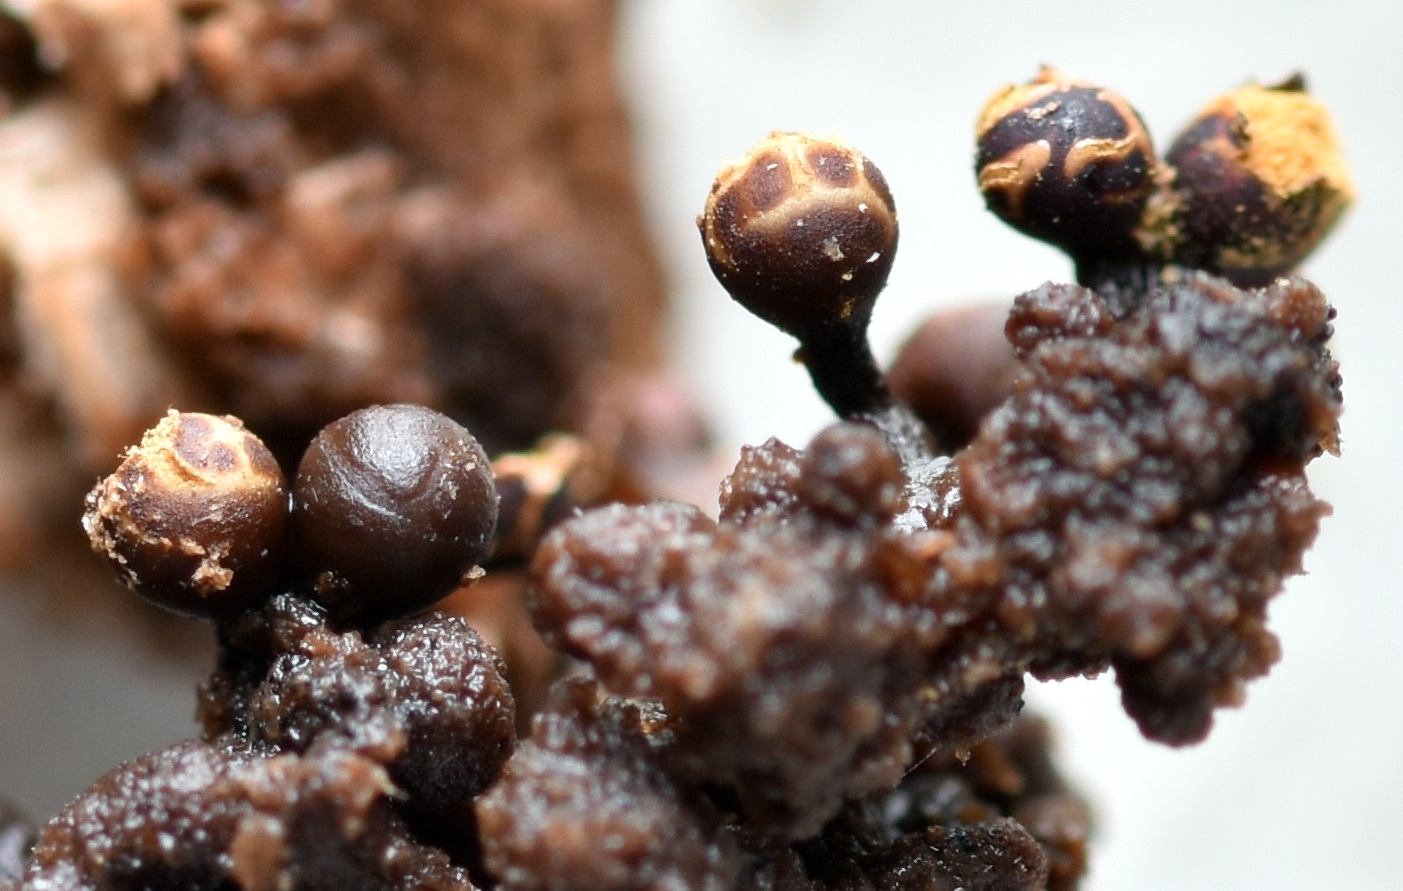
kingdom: Protozoa
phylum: Mycetozoa
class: Myxomycetes
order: Trichiales
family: Trichiaceae
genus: Trichia
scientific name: Trichia botrytis
